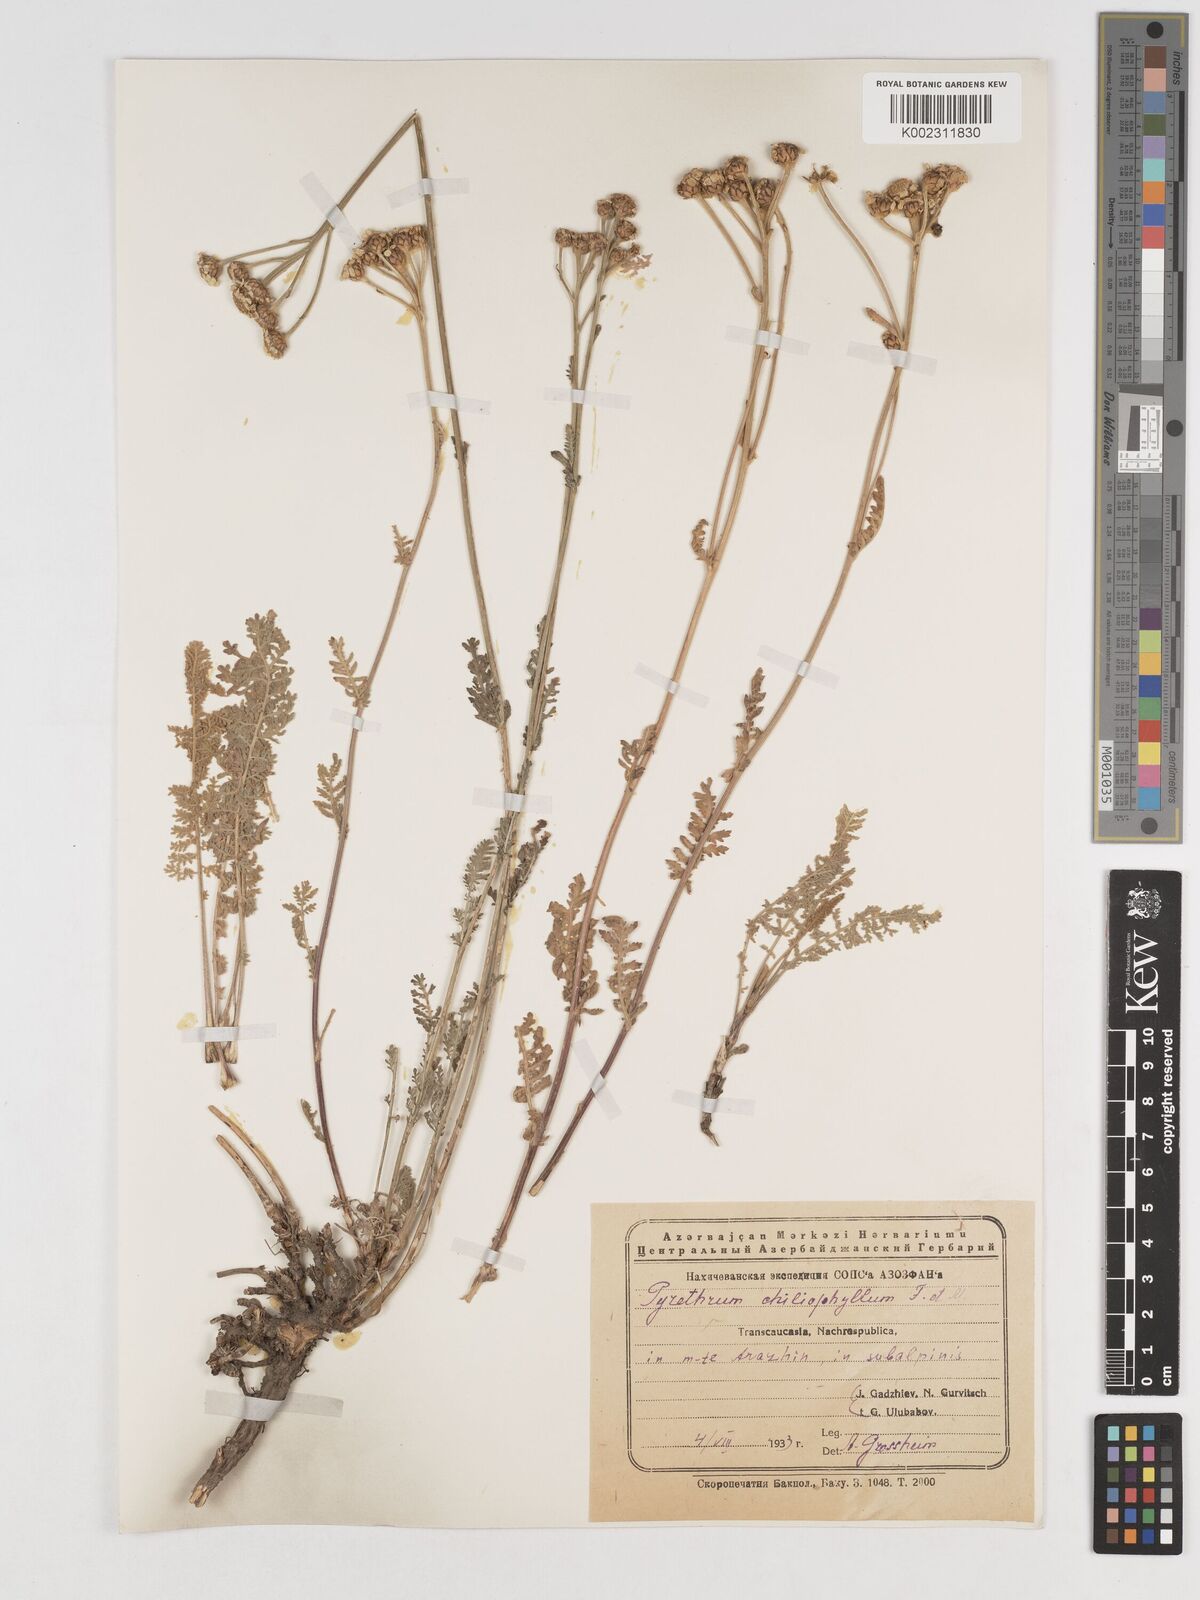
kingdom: Plantae
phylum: Tracheophyta
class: Magnoliopsida
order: Asterales
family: Asteraceae
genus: Tanacetum
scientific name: Tanacetum aureum
